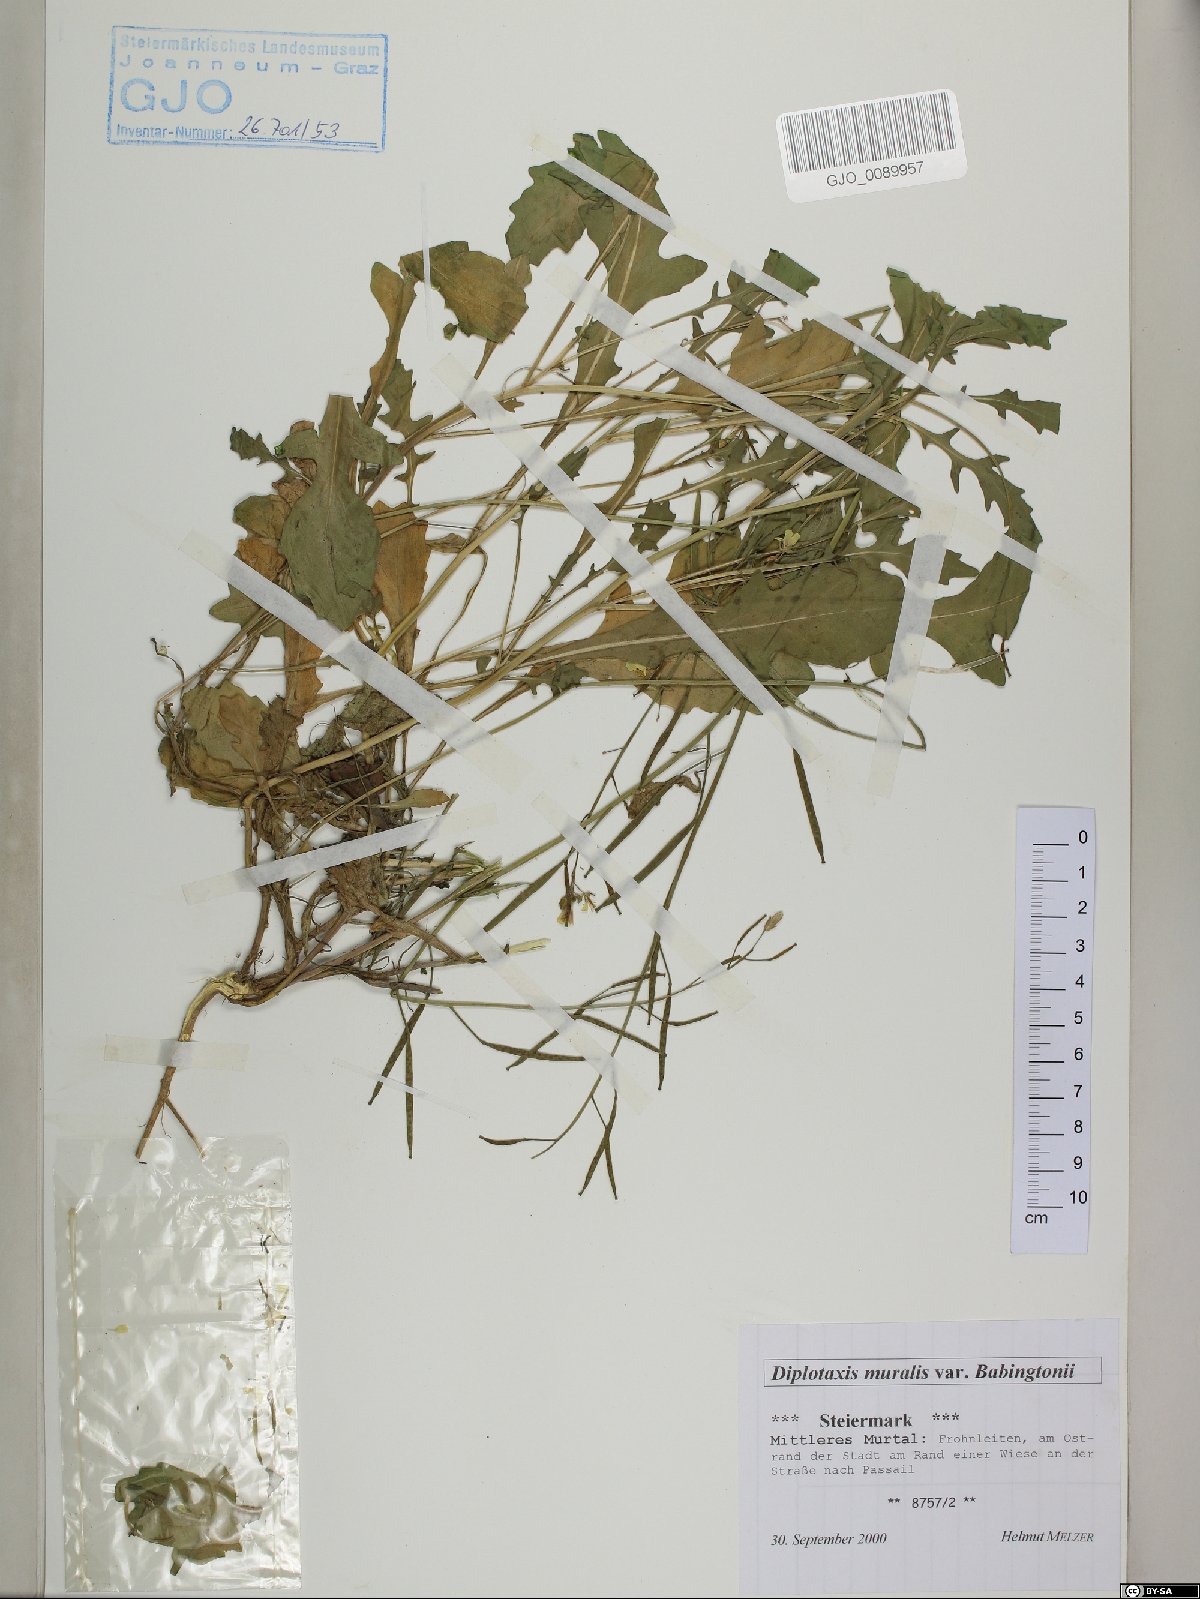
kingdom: Plantae
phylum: Tracheophyta
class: Magnoliopsida
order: Brassicales
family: Brassicaceae
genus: Diplotaxis
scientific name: Diplotaxis muralis
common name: Annual wall-rocket
